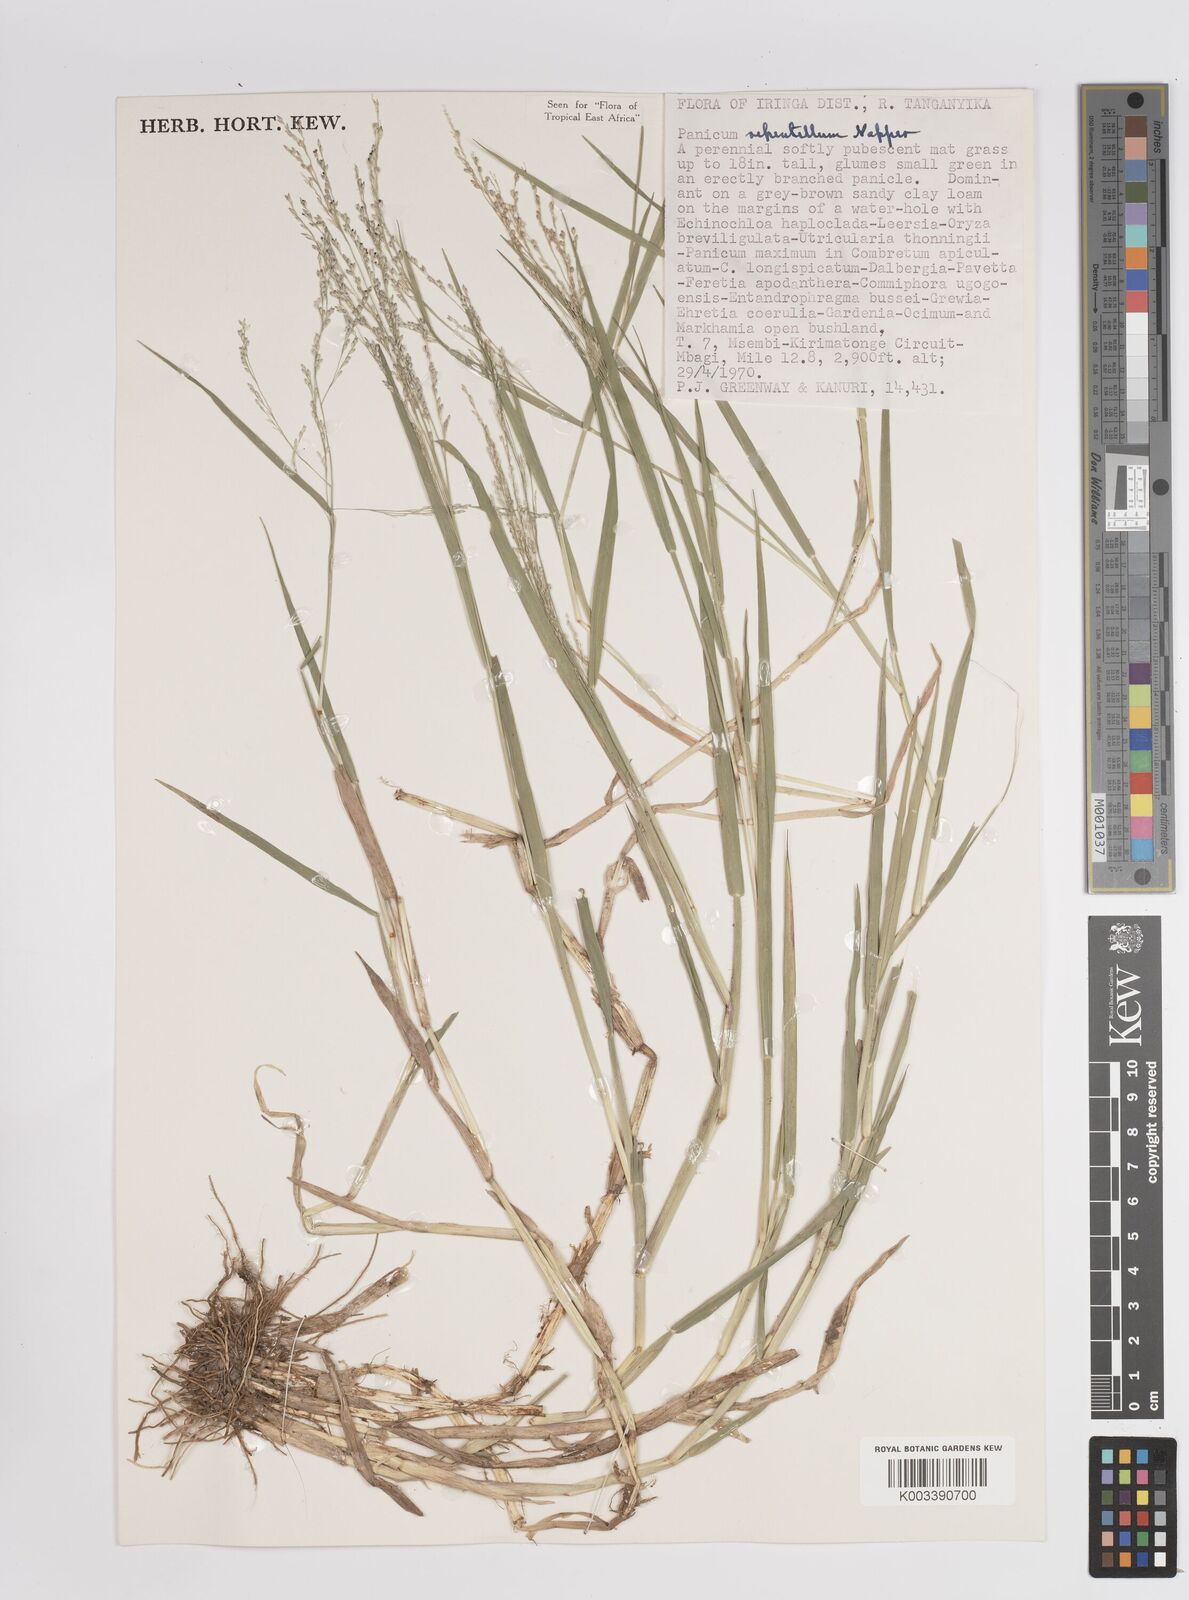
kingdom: Plantae
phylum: Tracheophyta
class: Liliopsida
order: Poales
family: Poaceae
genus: Panicum
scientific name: Panicum hygrocharis
